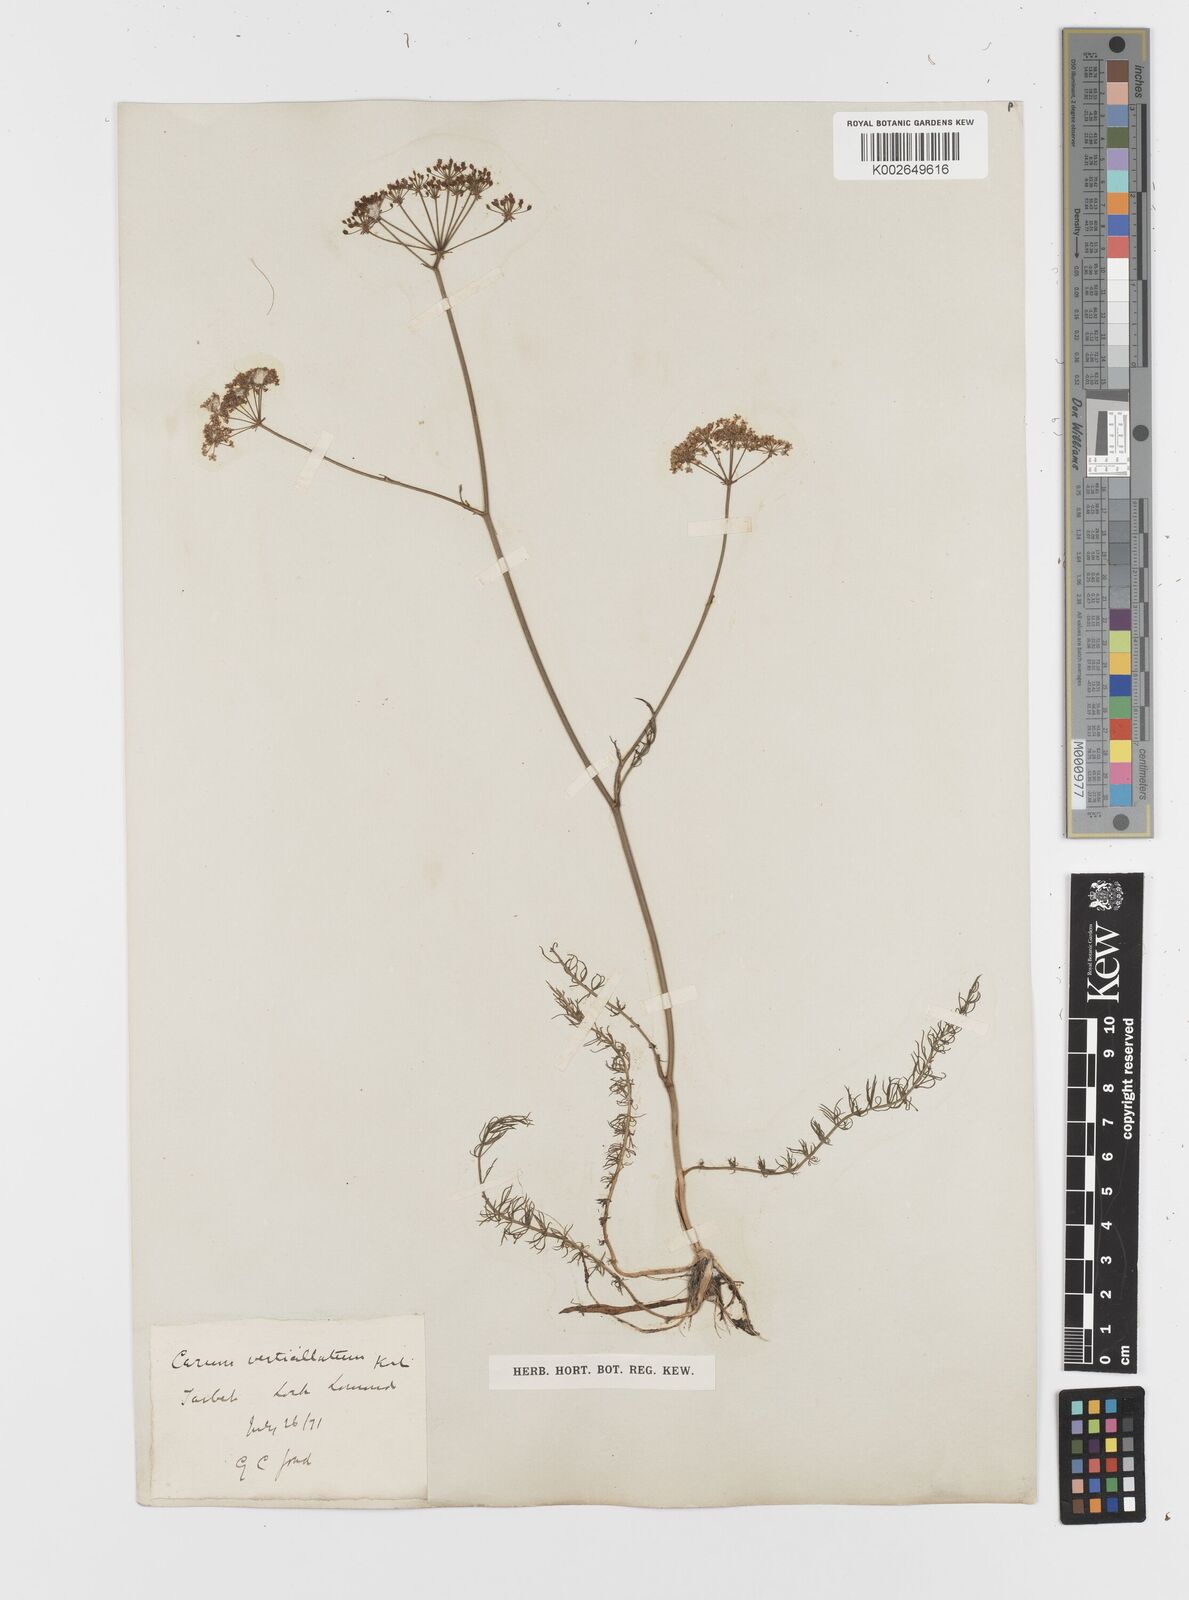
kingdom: Plantae
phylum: Tracheophyta
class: Magnoliopsida
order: Apiales
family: Apiaceae
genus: Trocdaris
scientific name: Trocdaris verticillatum
